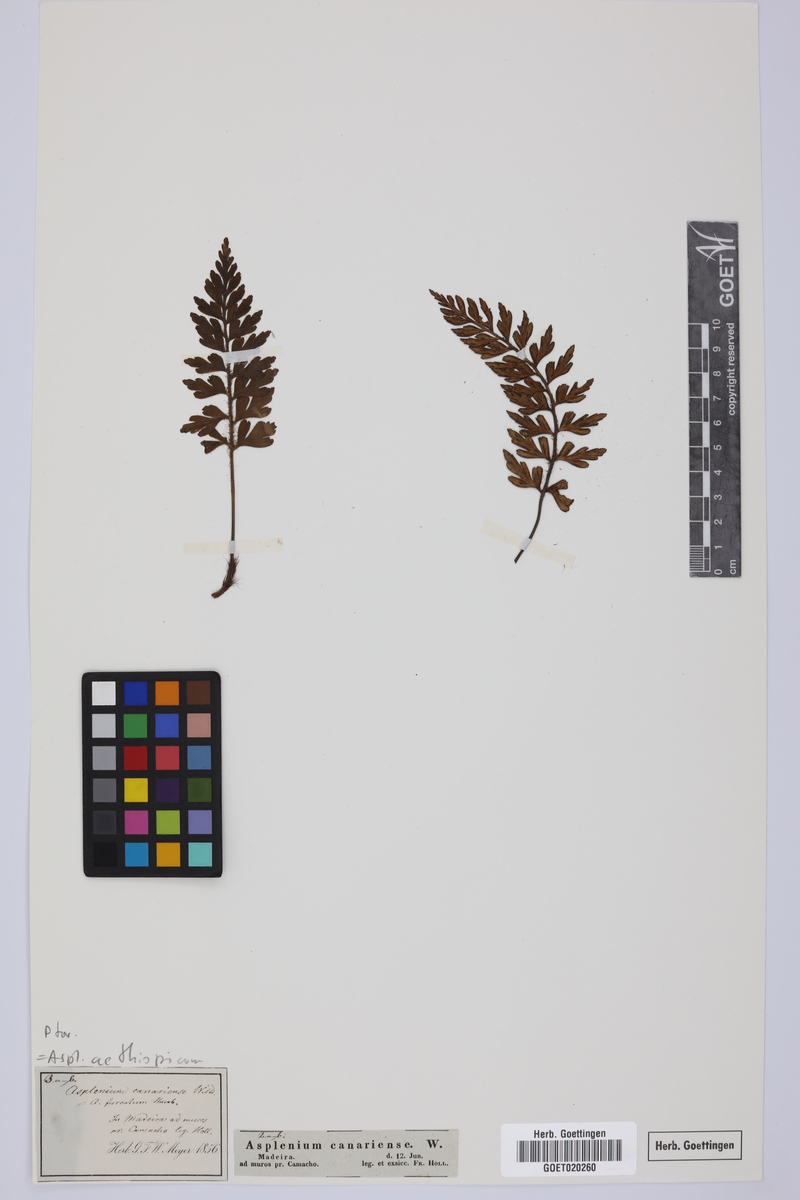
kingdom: Plantae
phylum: Tracheophyta
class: Polypodiopsida
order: Polypodiales
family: Aspleniaceae
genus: Asplenium
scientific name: Asplenium aethiopicum
